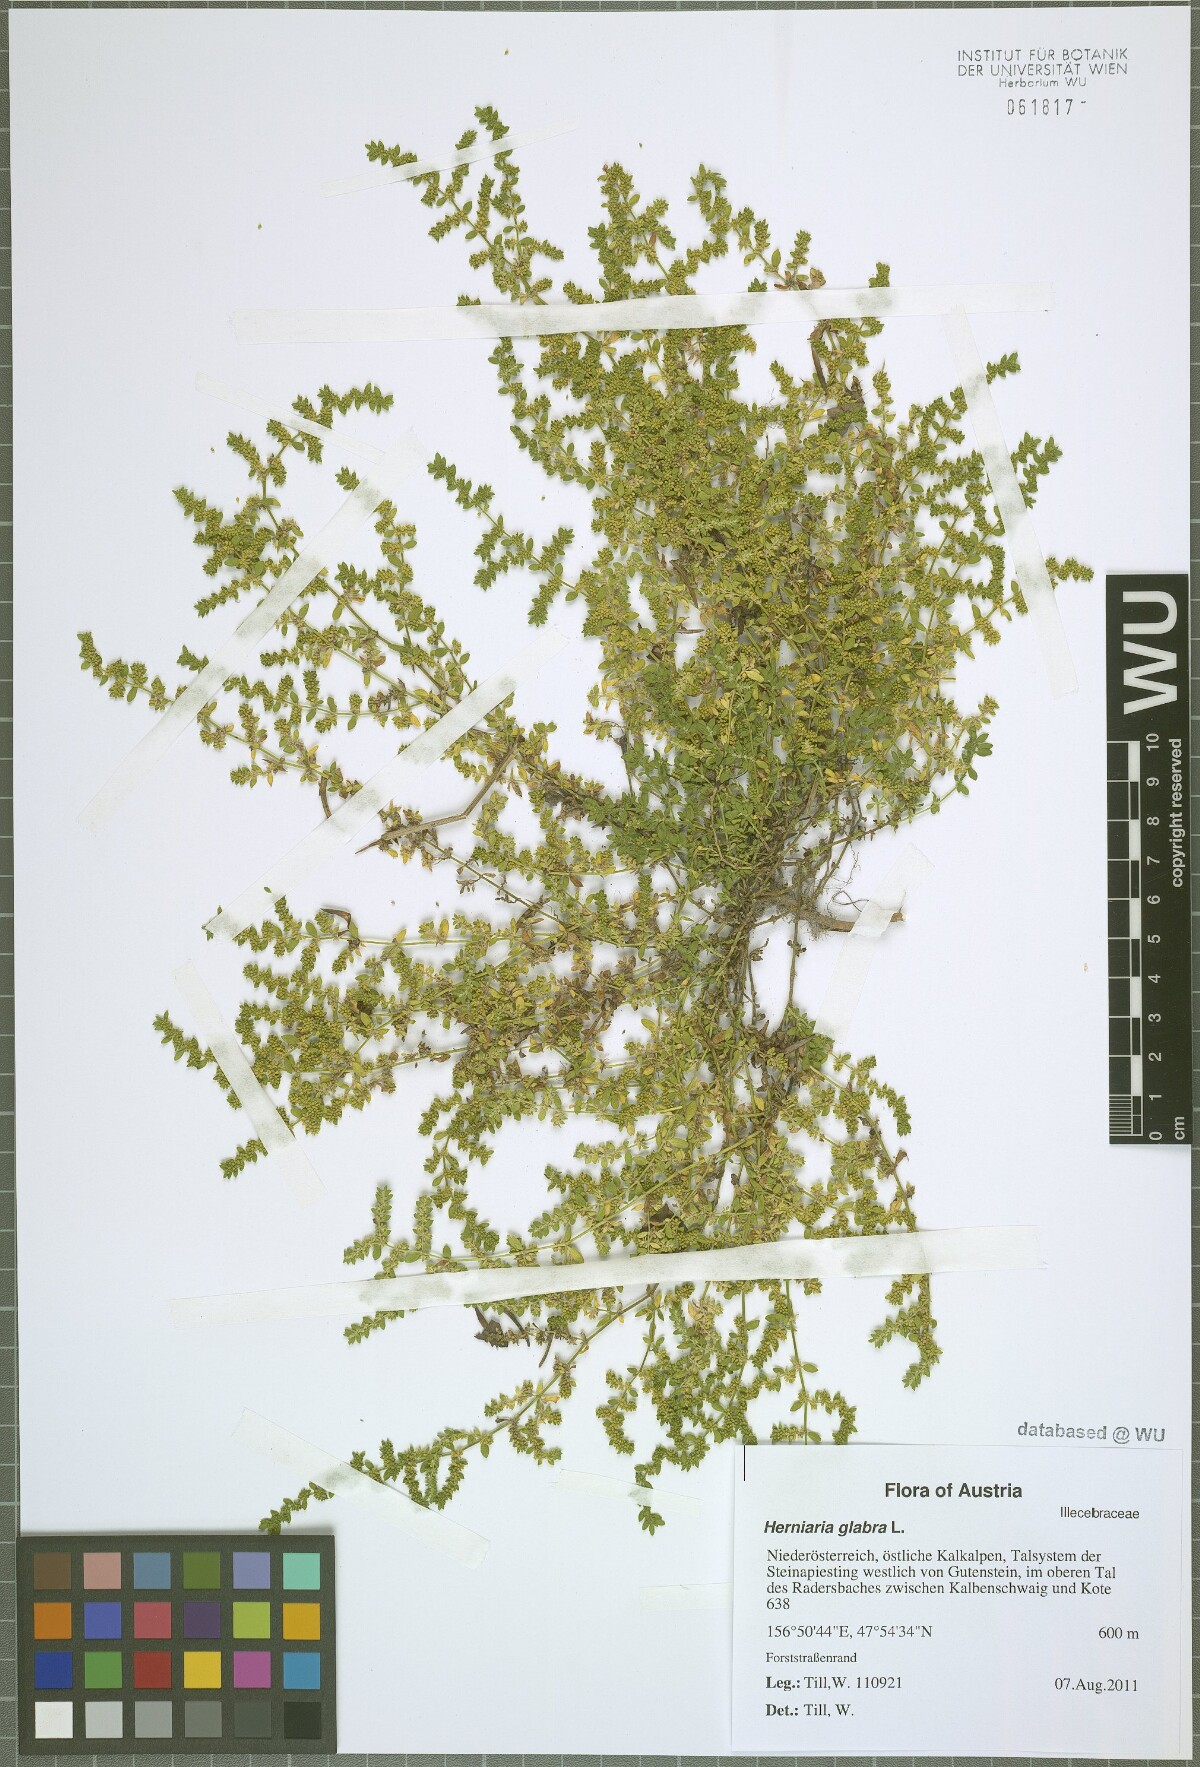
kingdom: Plantae
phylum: Tracheophyta
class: Magnoliopsida
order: Caryophyllales
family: Caryophyllaceae
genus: Herniaria
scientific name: Herniaria glabra
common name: Smooth rupturewort
